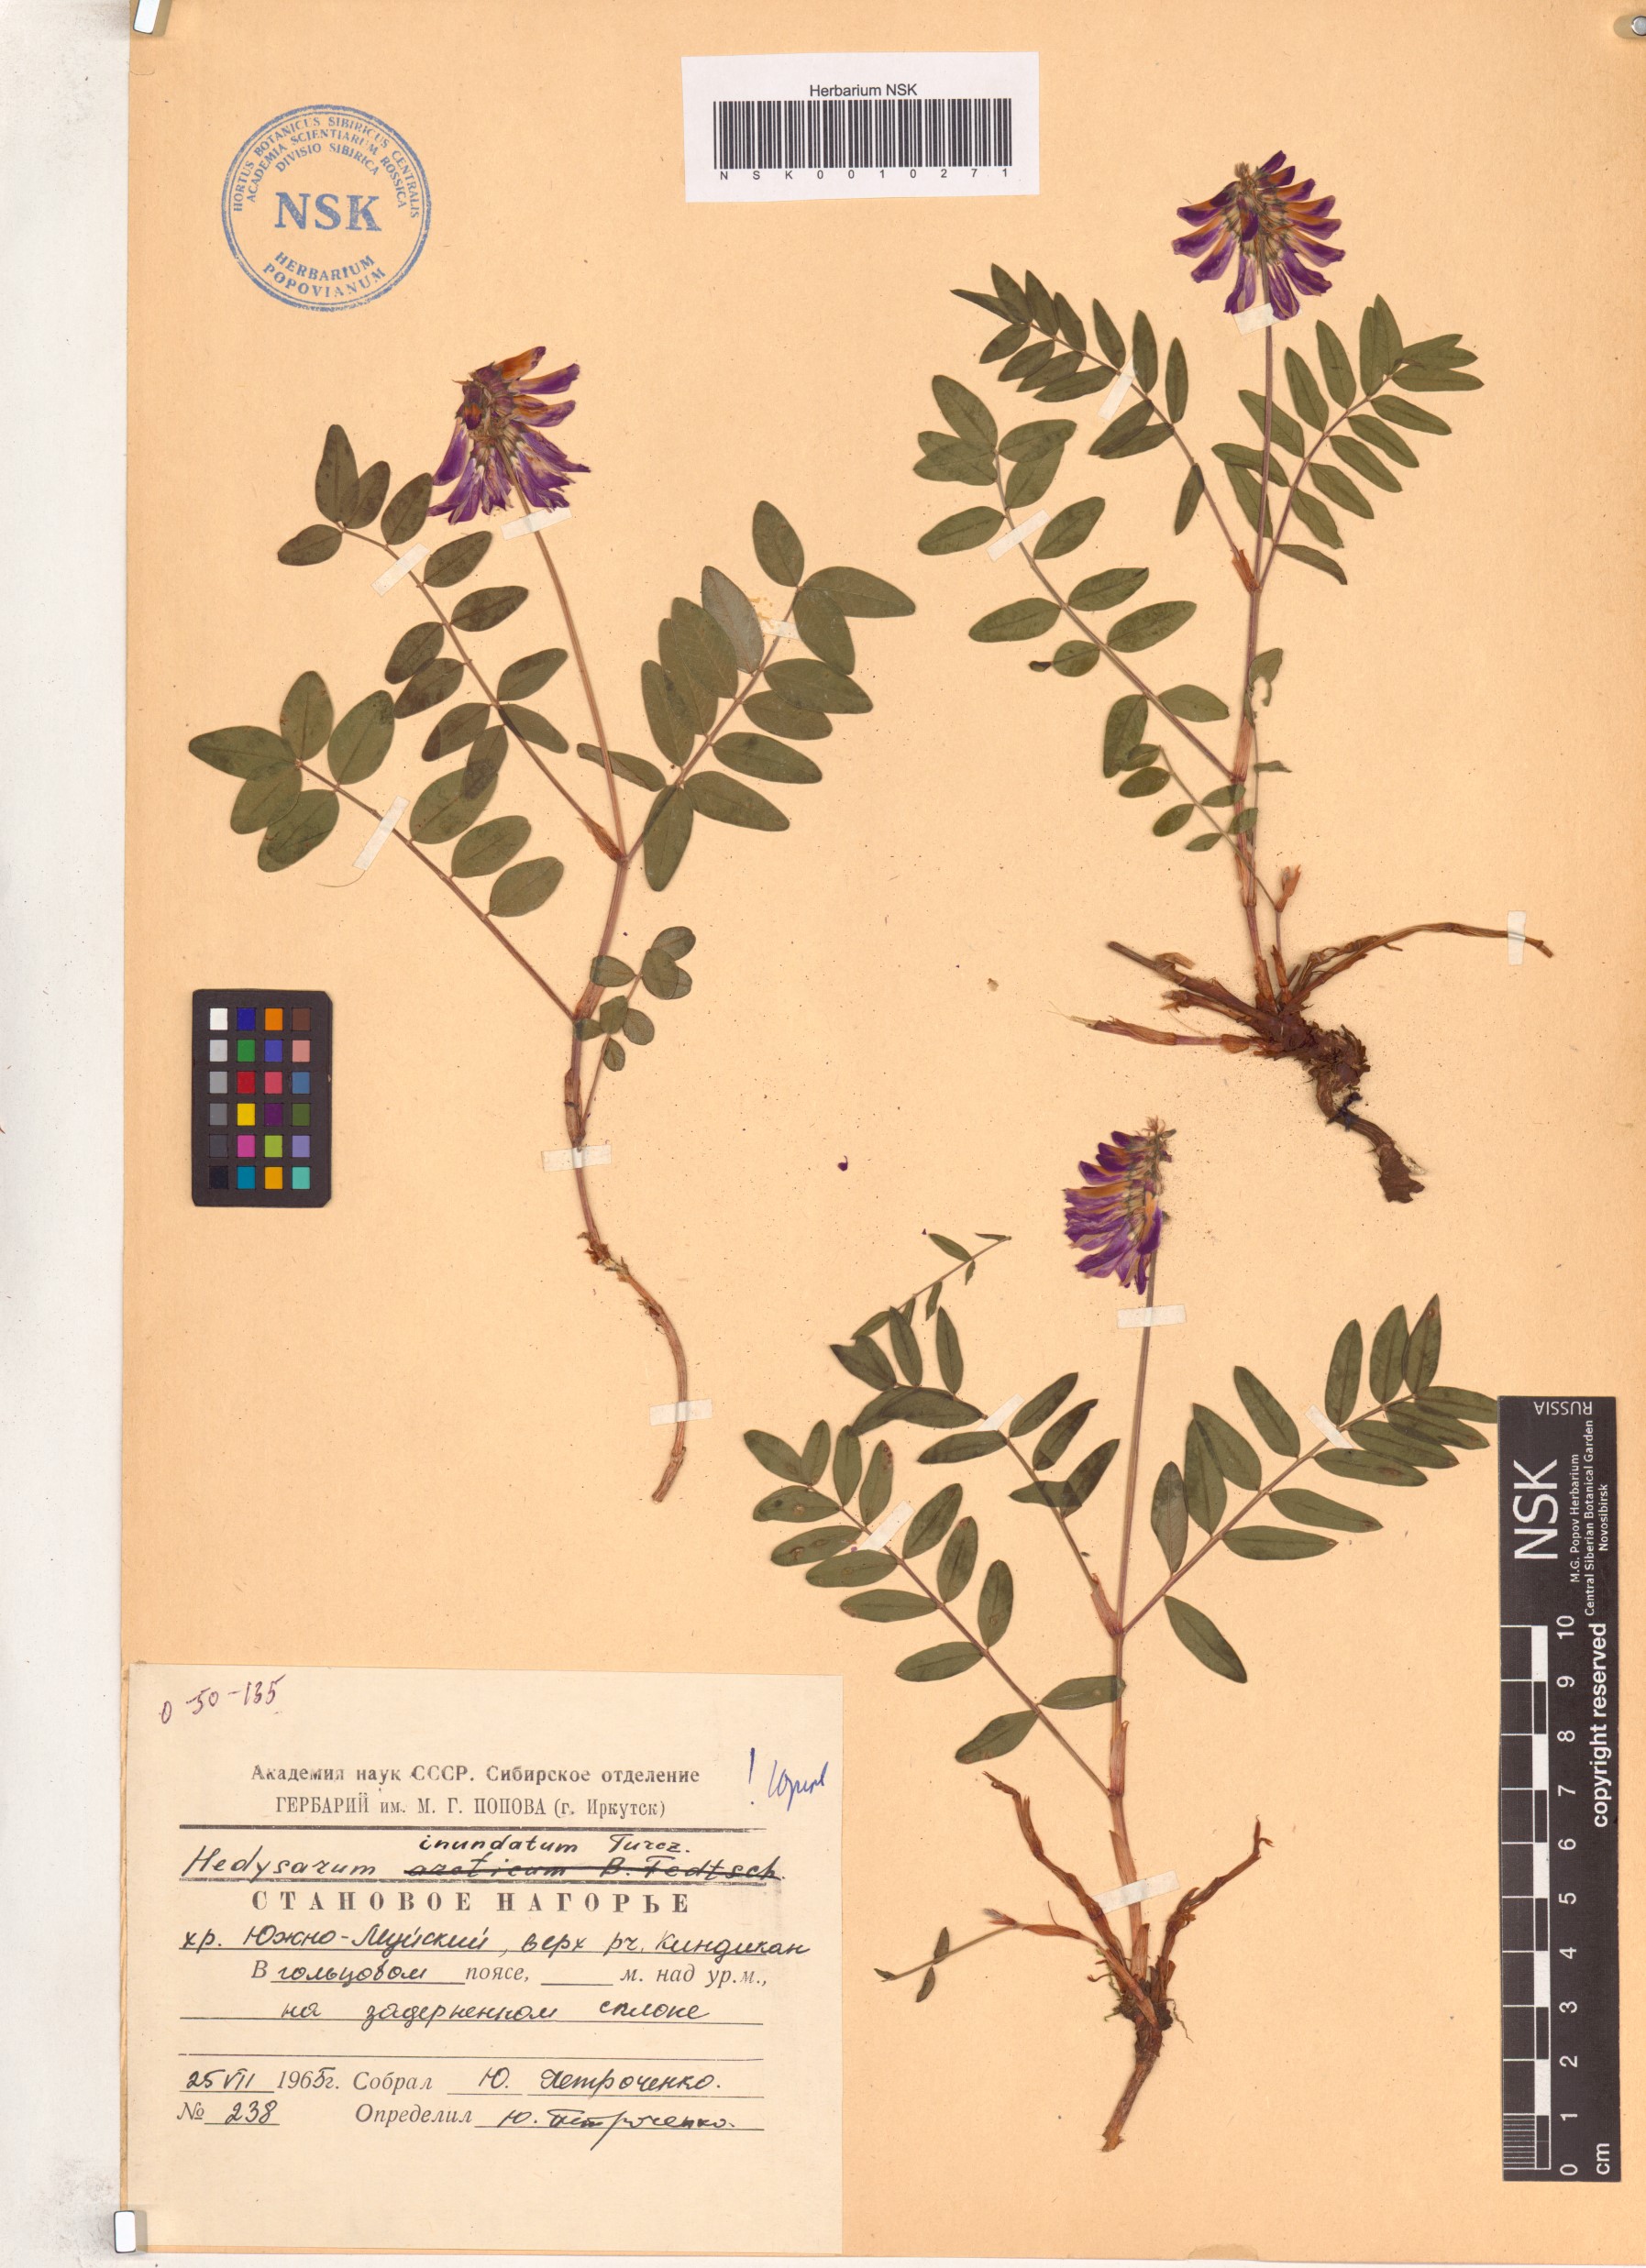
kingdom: Plantae
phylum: Tracheophyta
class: Magnoliopsida
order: Fabales
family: Fabaceae
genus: Hedysarum
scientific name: Hedysarum inundatum
